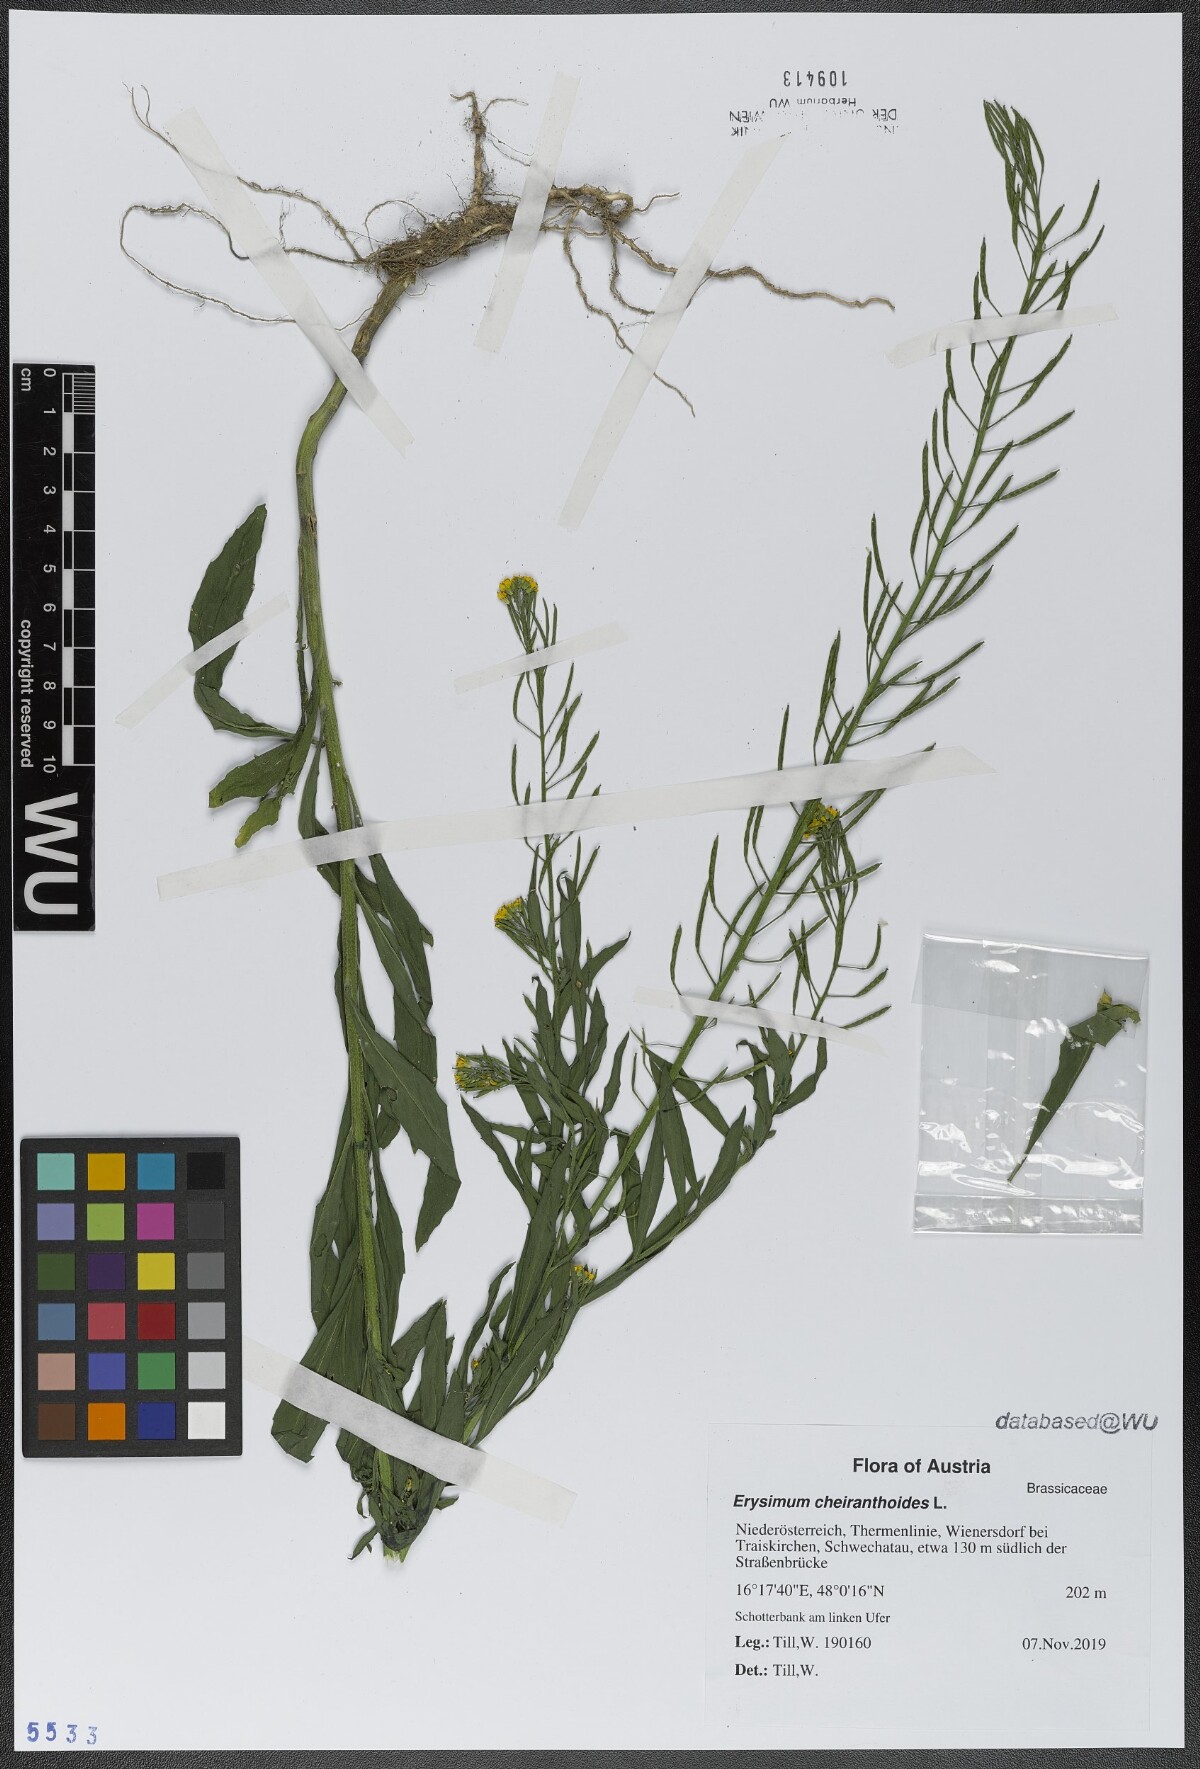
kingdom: Plantae
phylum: Tracheophyta
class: Magnoliopsida
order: Brassicales
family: Brassicaceae
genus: Erysimum
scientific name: Erysimum cheiranthoides
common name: Treacle mustard
